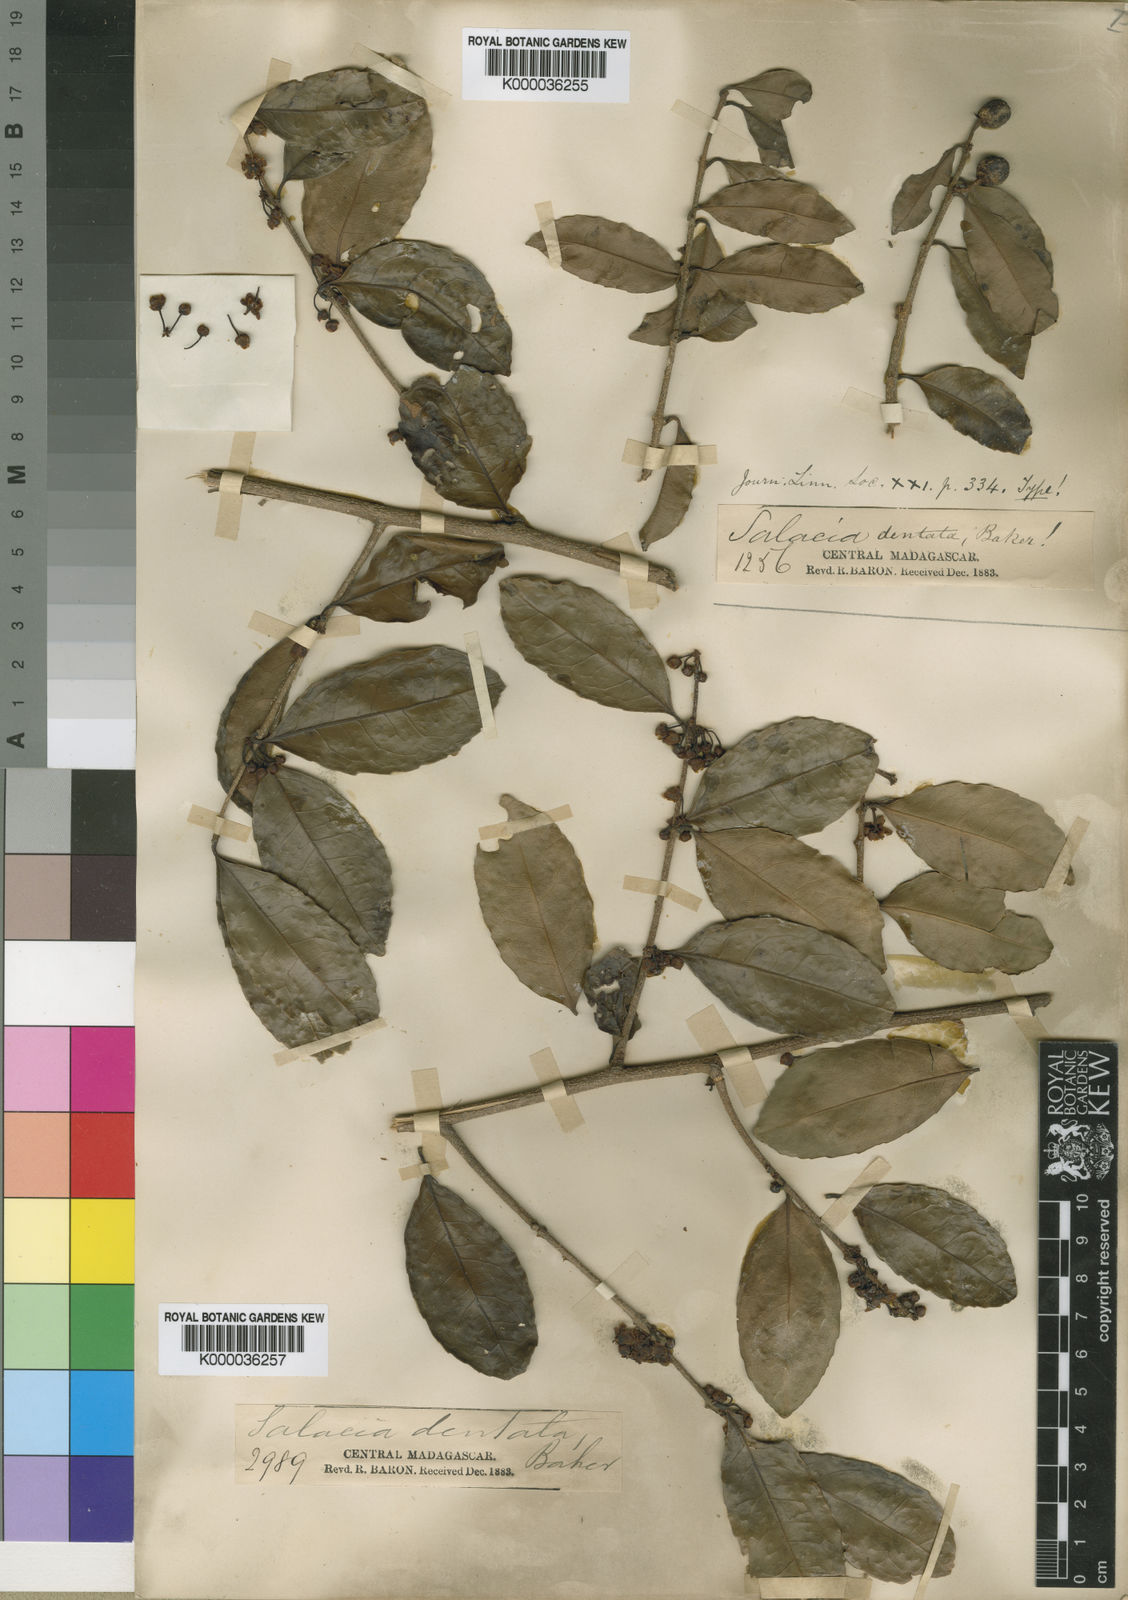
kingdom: Plantae
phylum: Tracheophyta
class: Magnoliopsida
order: Celastrales
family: Celastraceae
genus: Salacia
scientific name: Salacia dentata
